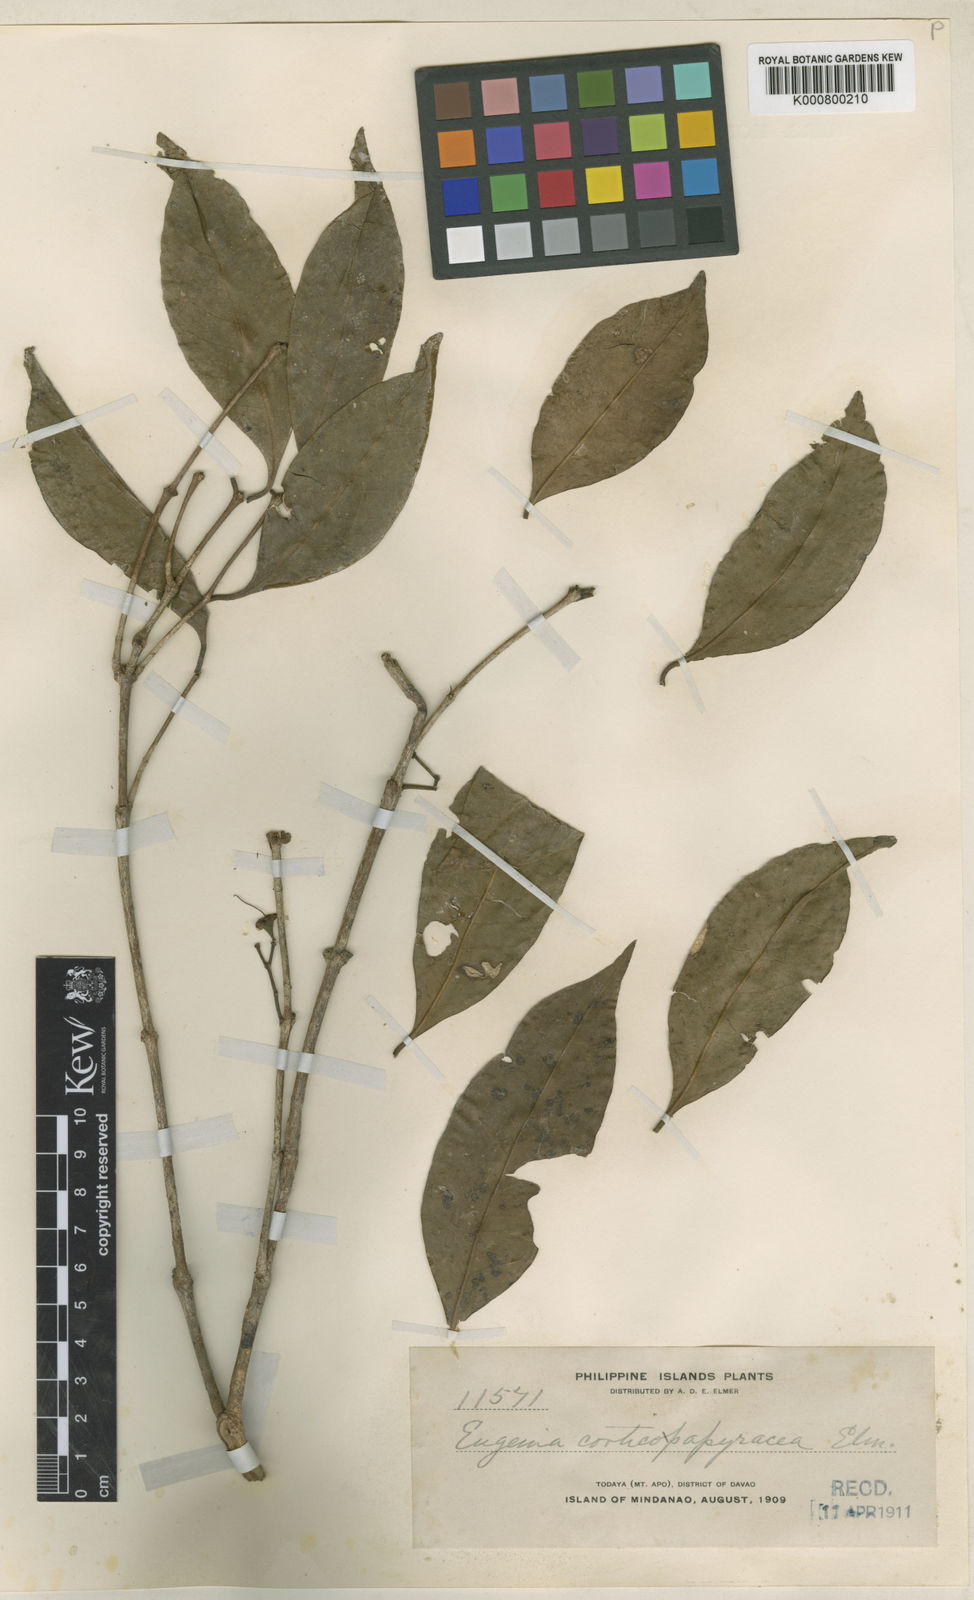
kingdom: Plantae
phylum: Tracheophyta
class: Magnoliopsida
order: Myrtales
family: Myrtaceae
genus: Syzygium
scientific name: Syzygium corticopapyraceum
